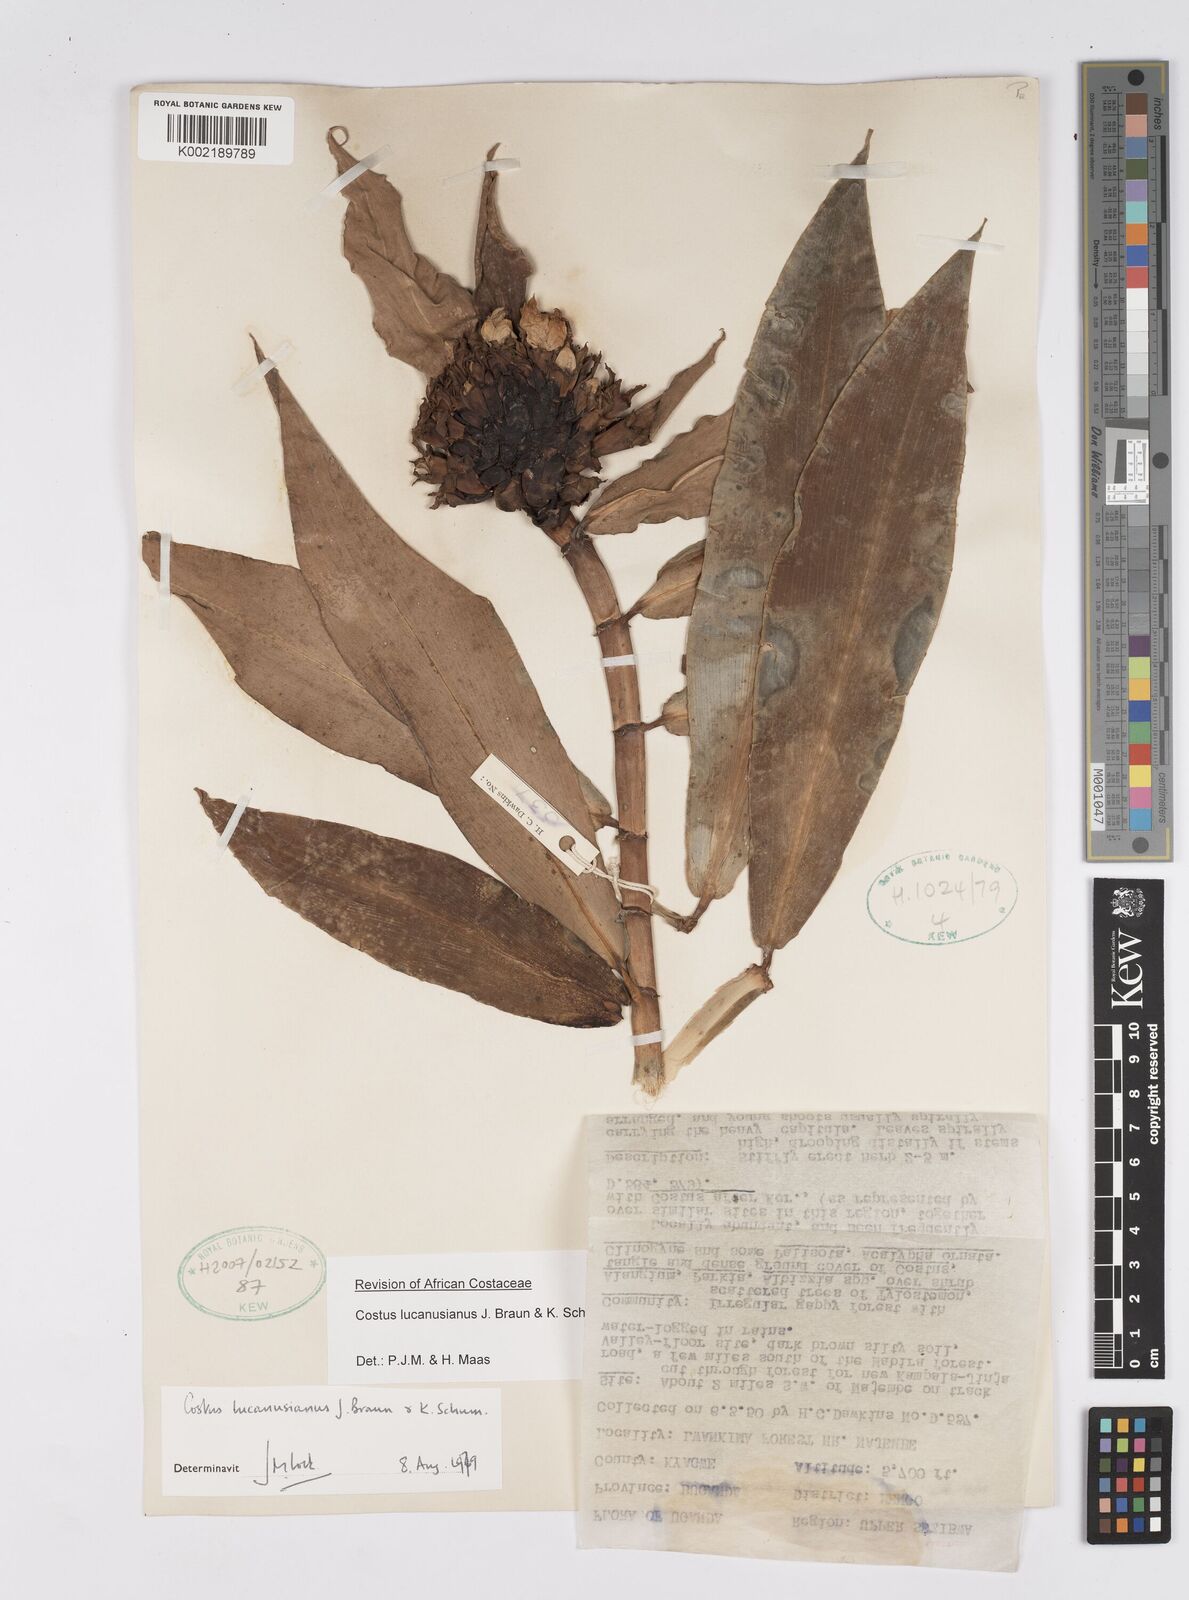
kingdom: Plantae
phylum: Tracheophyta
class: Liliopsida
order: Zingiberales
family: Costaceae
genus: Costus
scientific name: Costus lucanusianus
